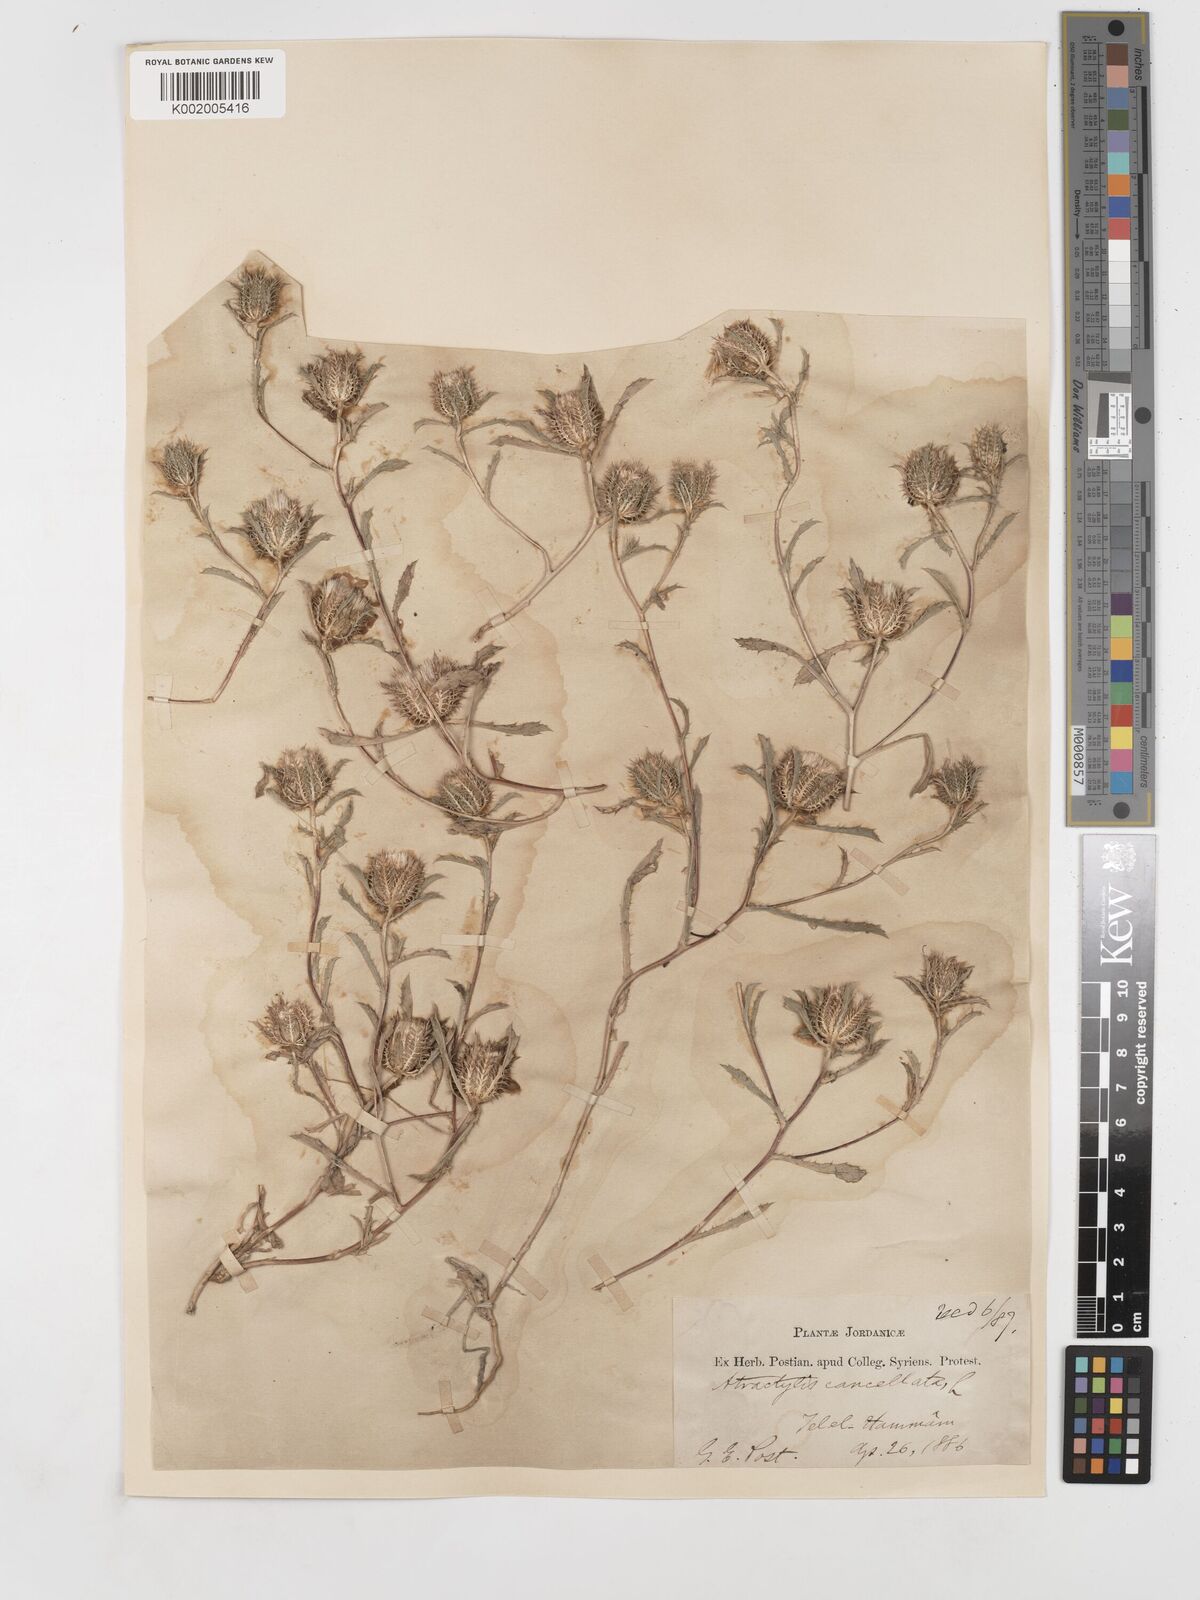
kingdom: Plantae
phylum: Tracheophyta
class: Magnoliopsida
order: Asterales
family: Asteraceae
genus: Atractylis
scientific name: Atractylis cancellata
